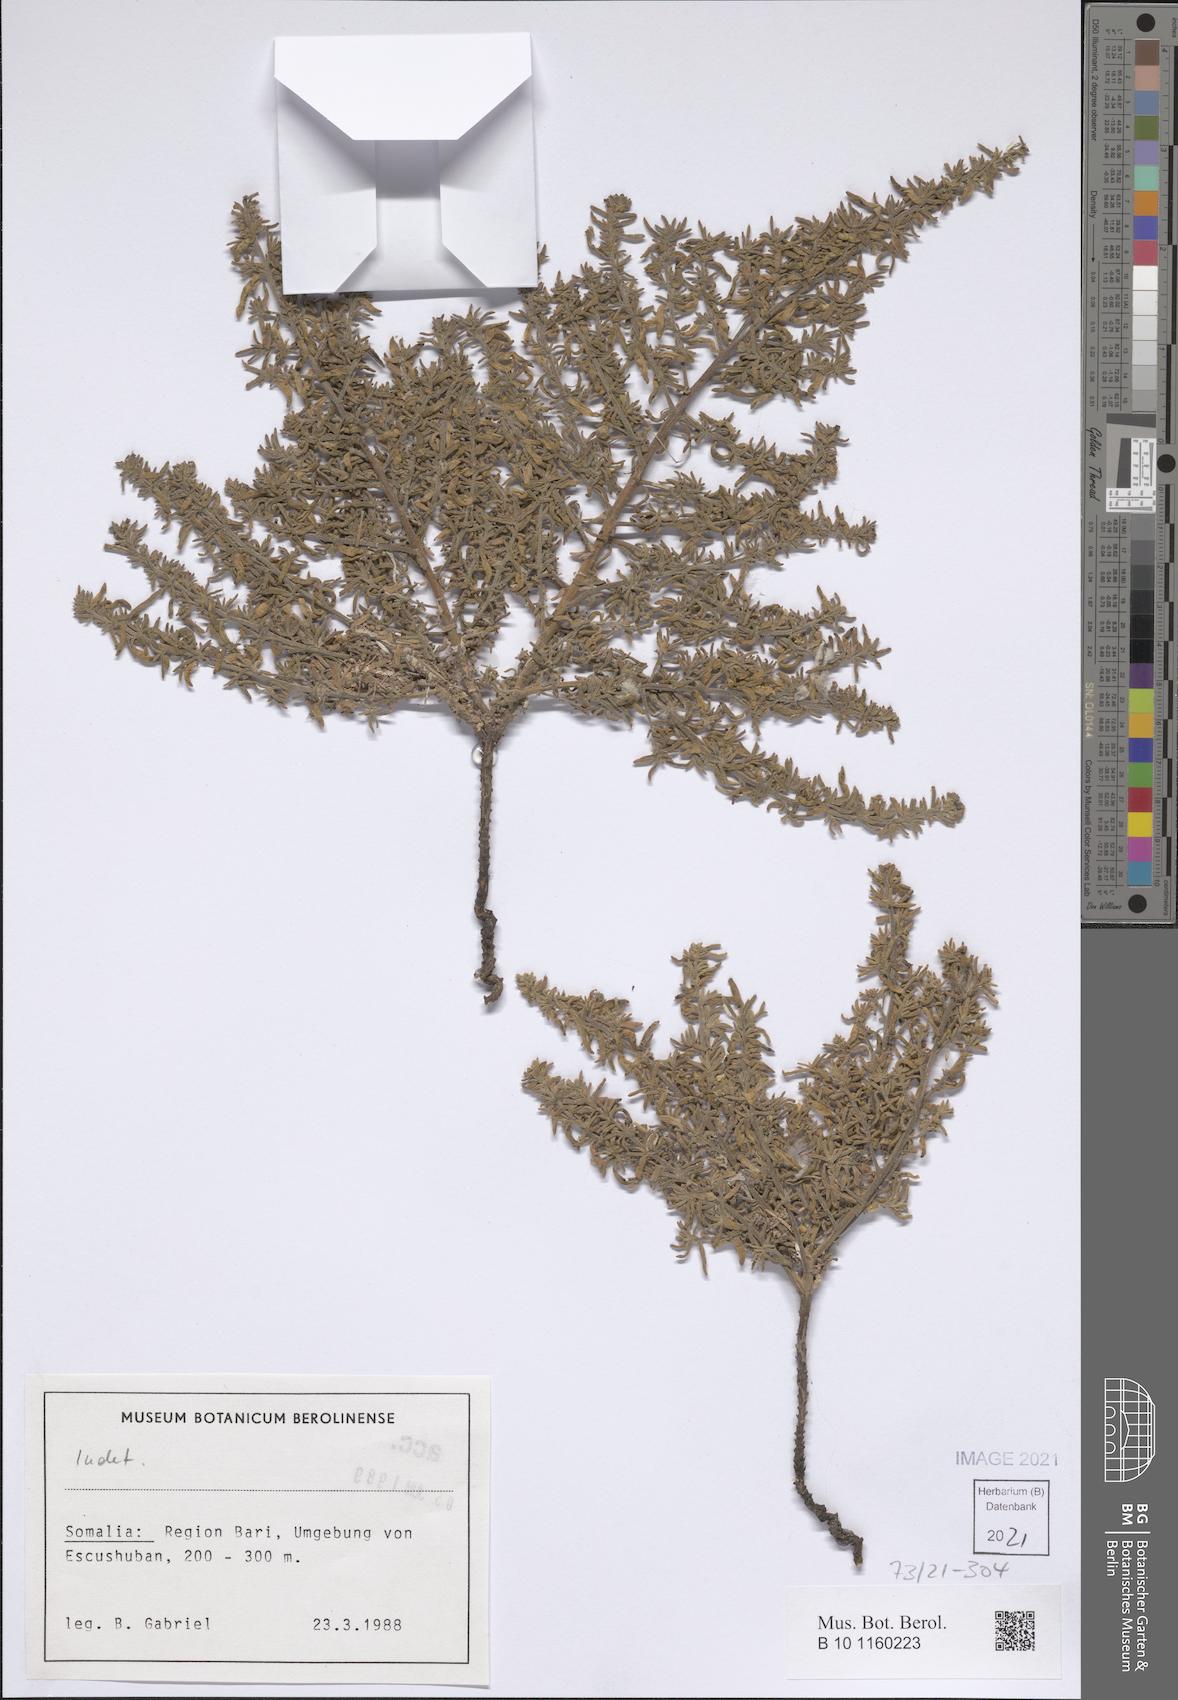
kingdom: Plantae
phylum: Tracheophyta
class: Magnoliopsida
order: Boraginales
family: Heliotropiaceae
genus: Heliotropium
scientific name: Heliotropium drepanophyllum
